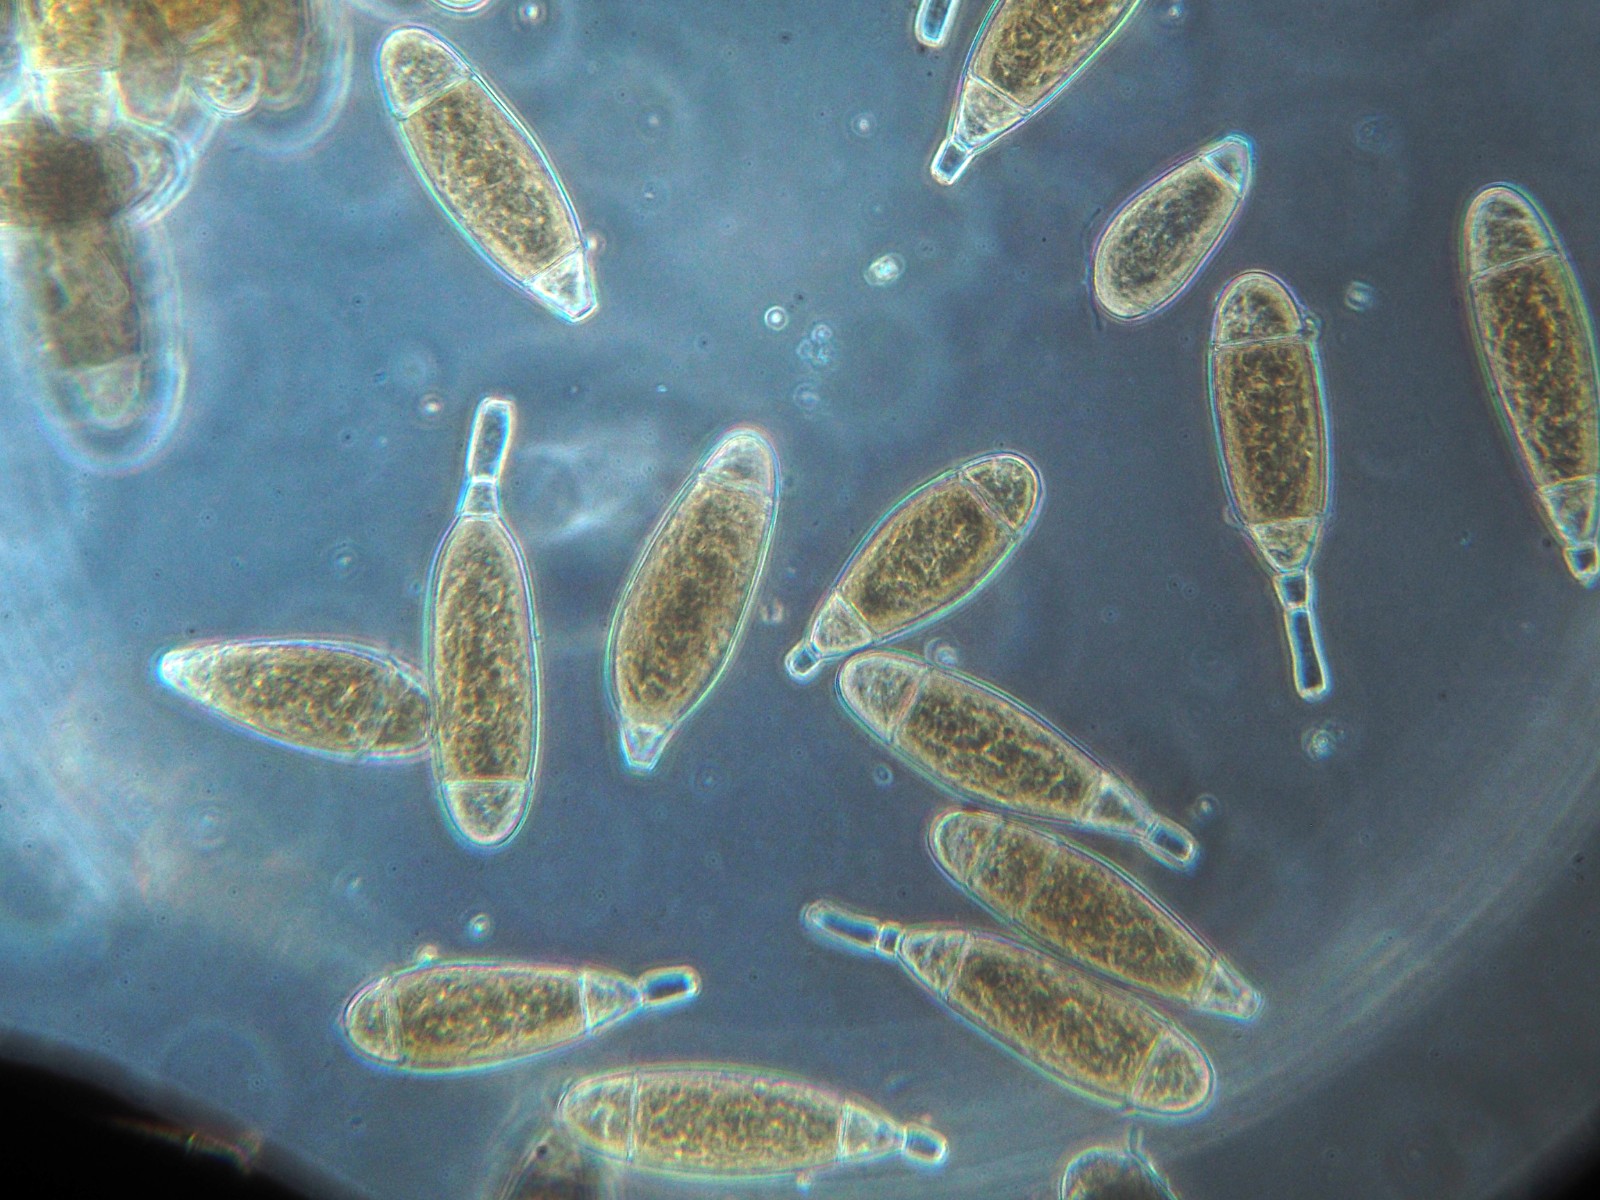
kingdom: Fungi
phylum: Ascomycota
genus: Bactridium
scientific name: Bactridium flavum
